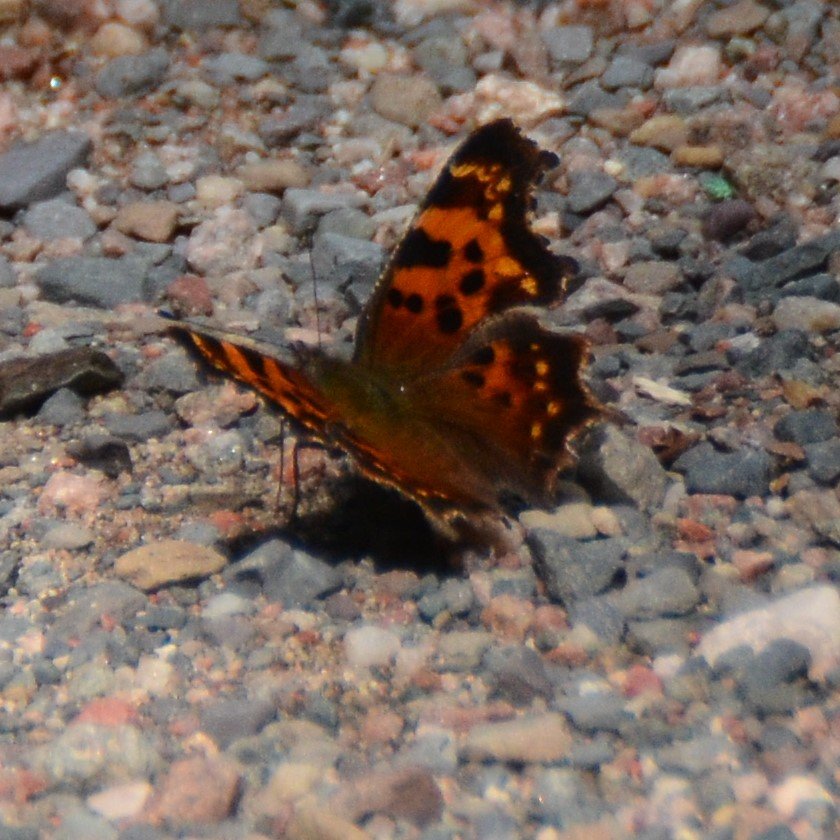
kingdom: Animalia
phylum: Arthropoda
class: Insecta
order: Lepidoptera
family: Nymphalidae
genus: Polygonia
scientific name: Polygonia faunus
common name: Green Comma
